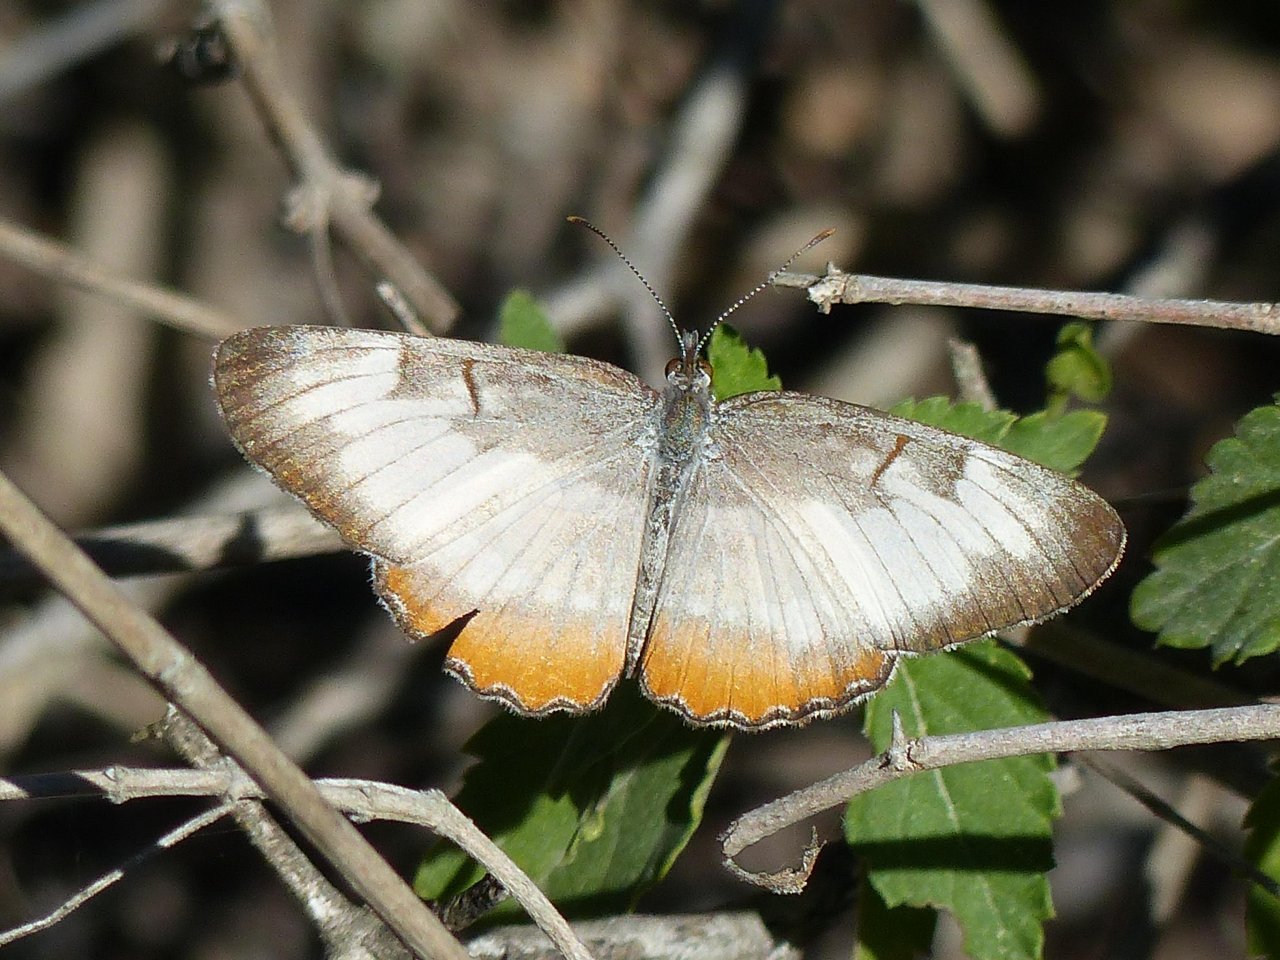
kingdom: Animalia
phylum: Arthropoda
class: Insecta
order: Lepidoptera
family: Nymphalidae
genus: Mestra
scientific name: Mestra amymone
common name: Common Mestra
